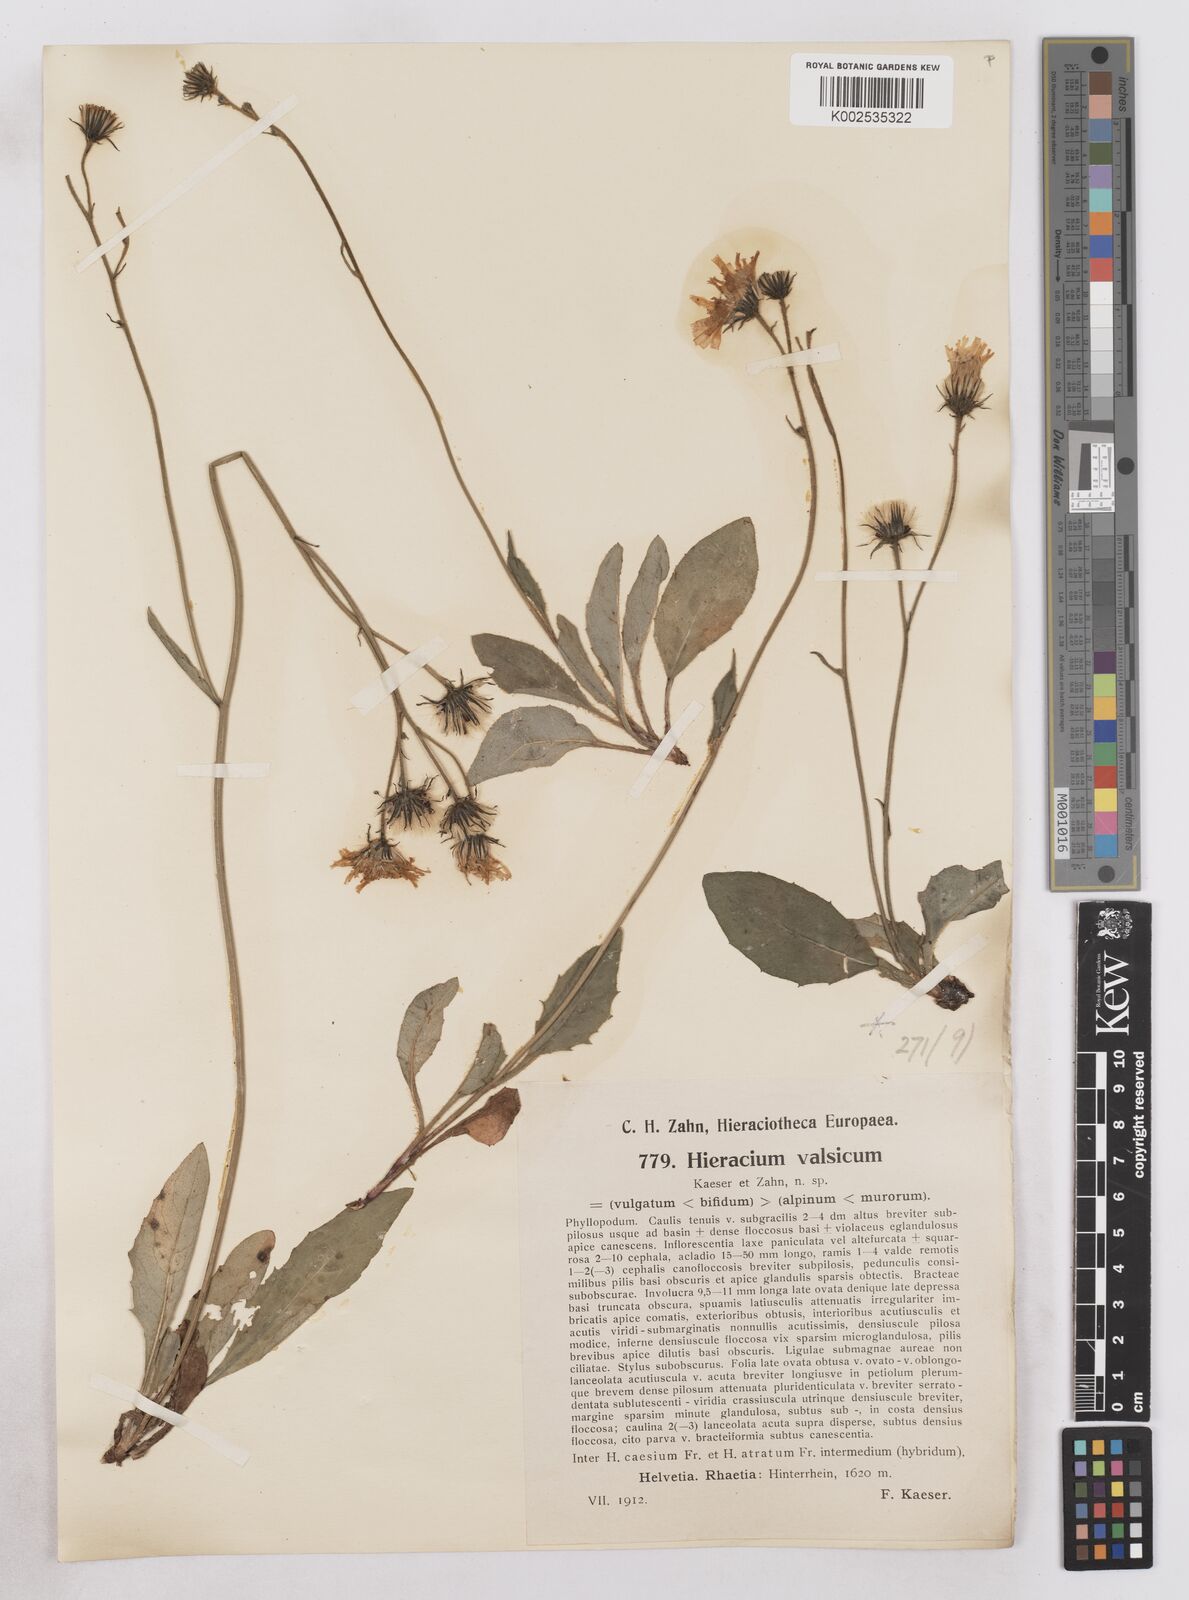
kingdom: Plantae
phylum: Tracheophyta
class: Magnoliopsida
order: Asterales
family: Asteraceae
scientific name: Asteraceae
